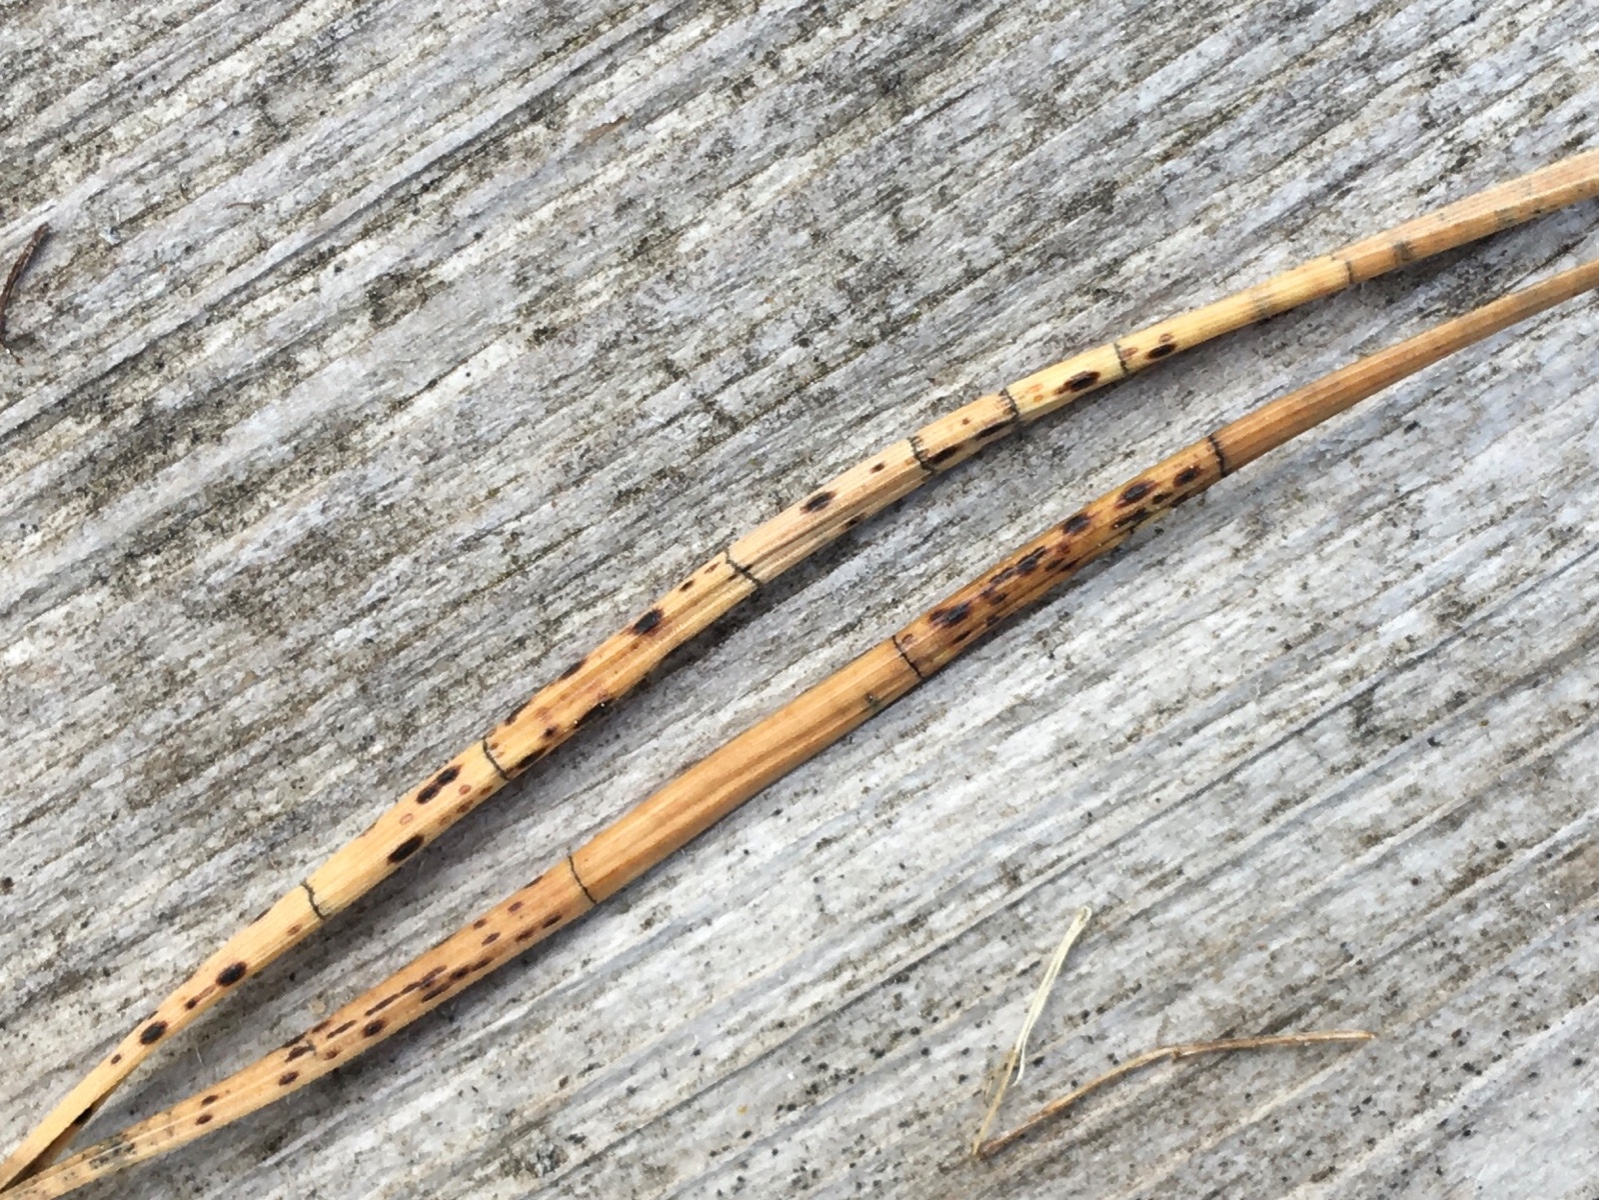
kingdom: Fungi
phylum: Ascomycota
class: Leotiomycetes
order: Rhytismatales
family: Rhytismataceae
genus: Lophodermium
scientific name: Lophodermium pinastri
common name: fyrre-fureplet
